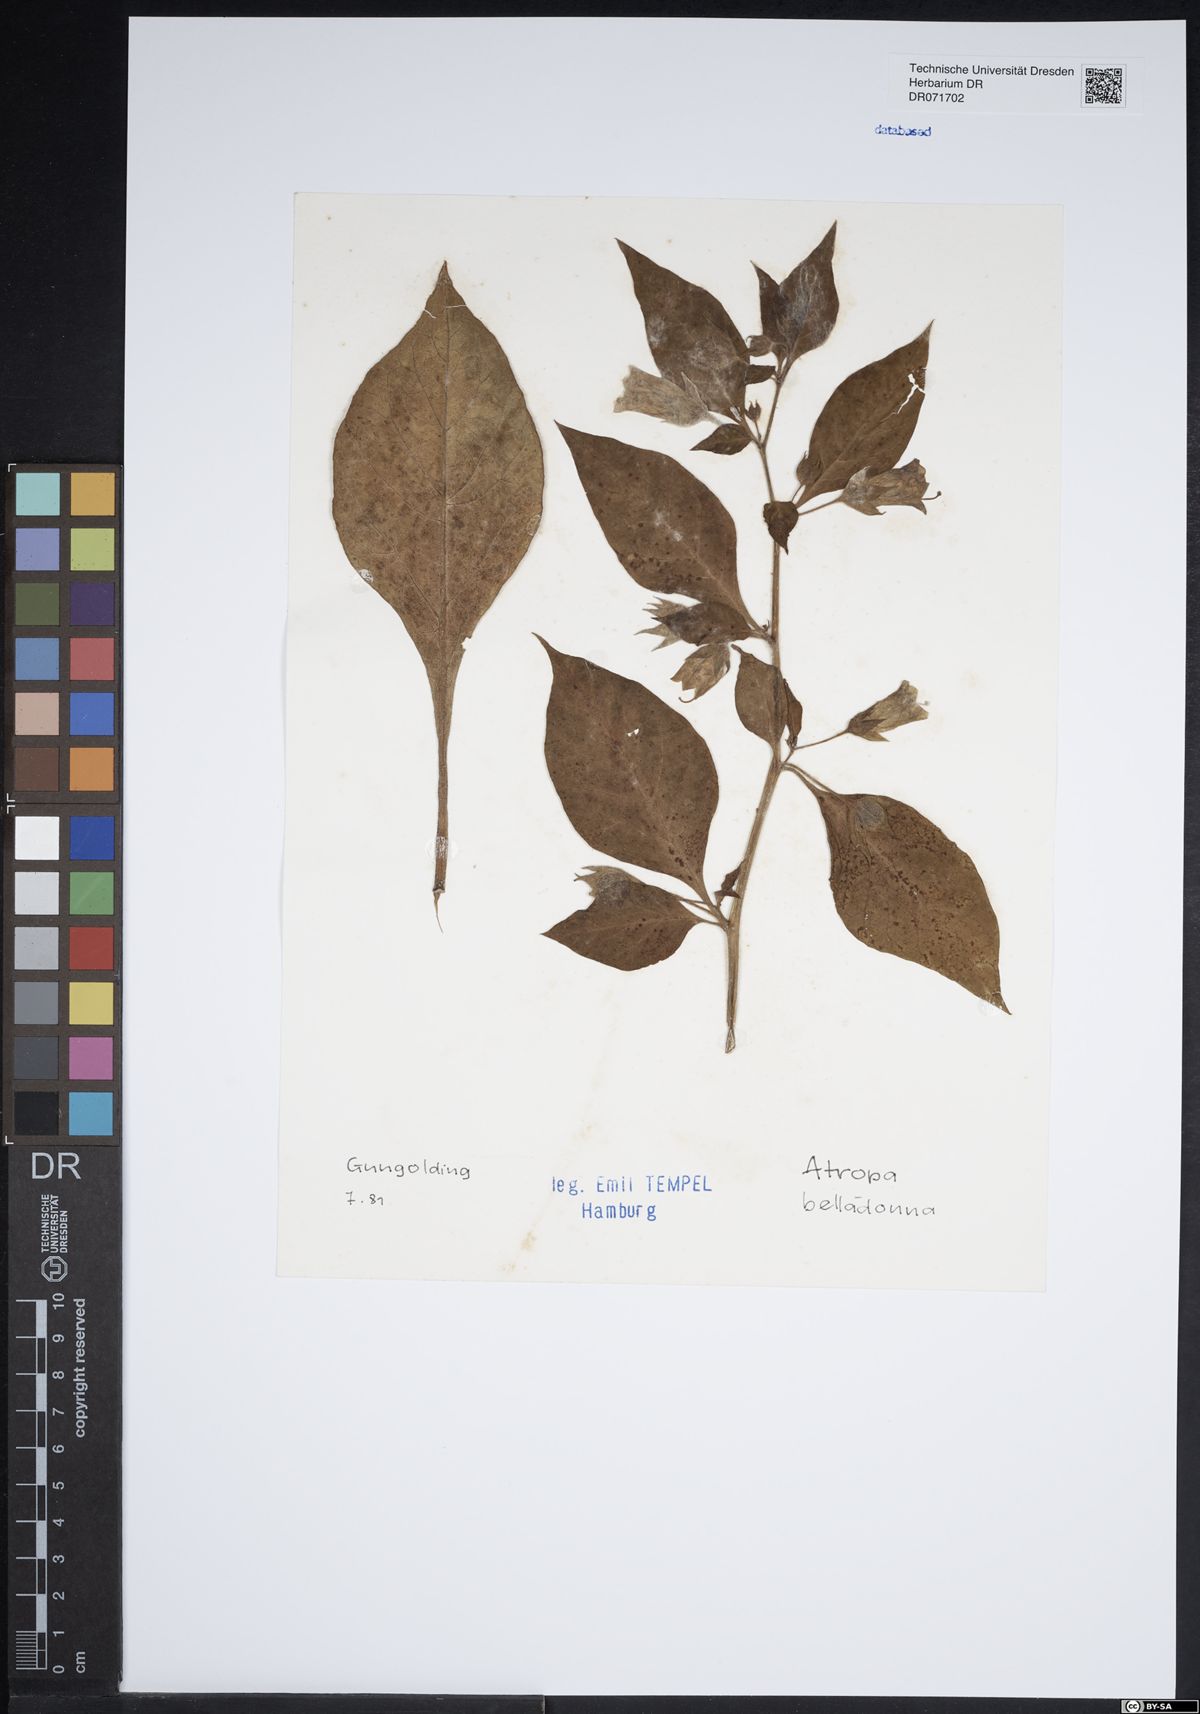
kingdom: Plantae
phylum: Tracheophyta
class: Magnoliopsida
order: Solanales
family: Solanaceae
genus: Atropa
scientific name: Atropa belladonna
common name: Deadly nightshade
